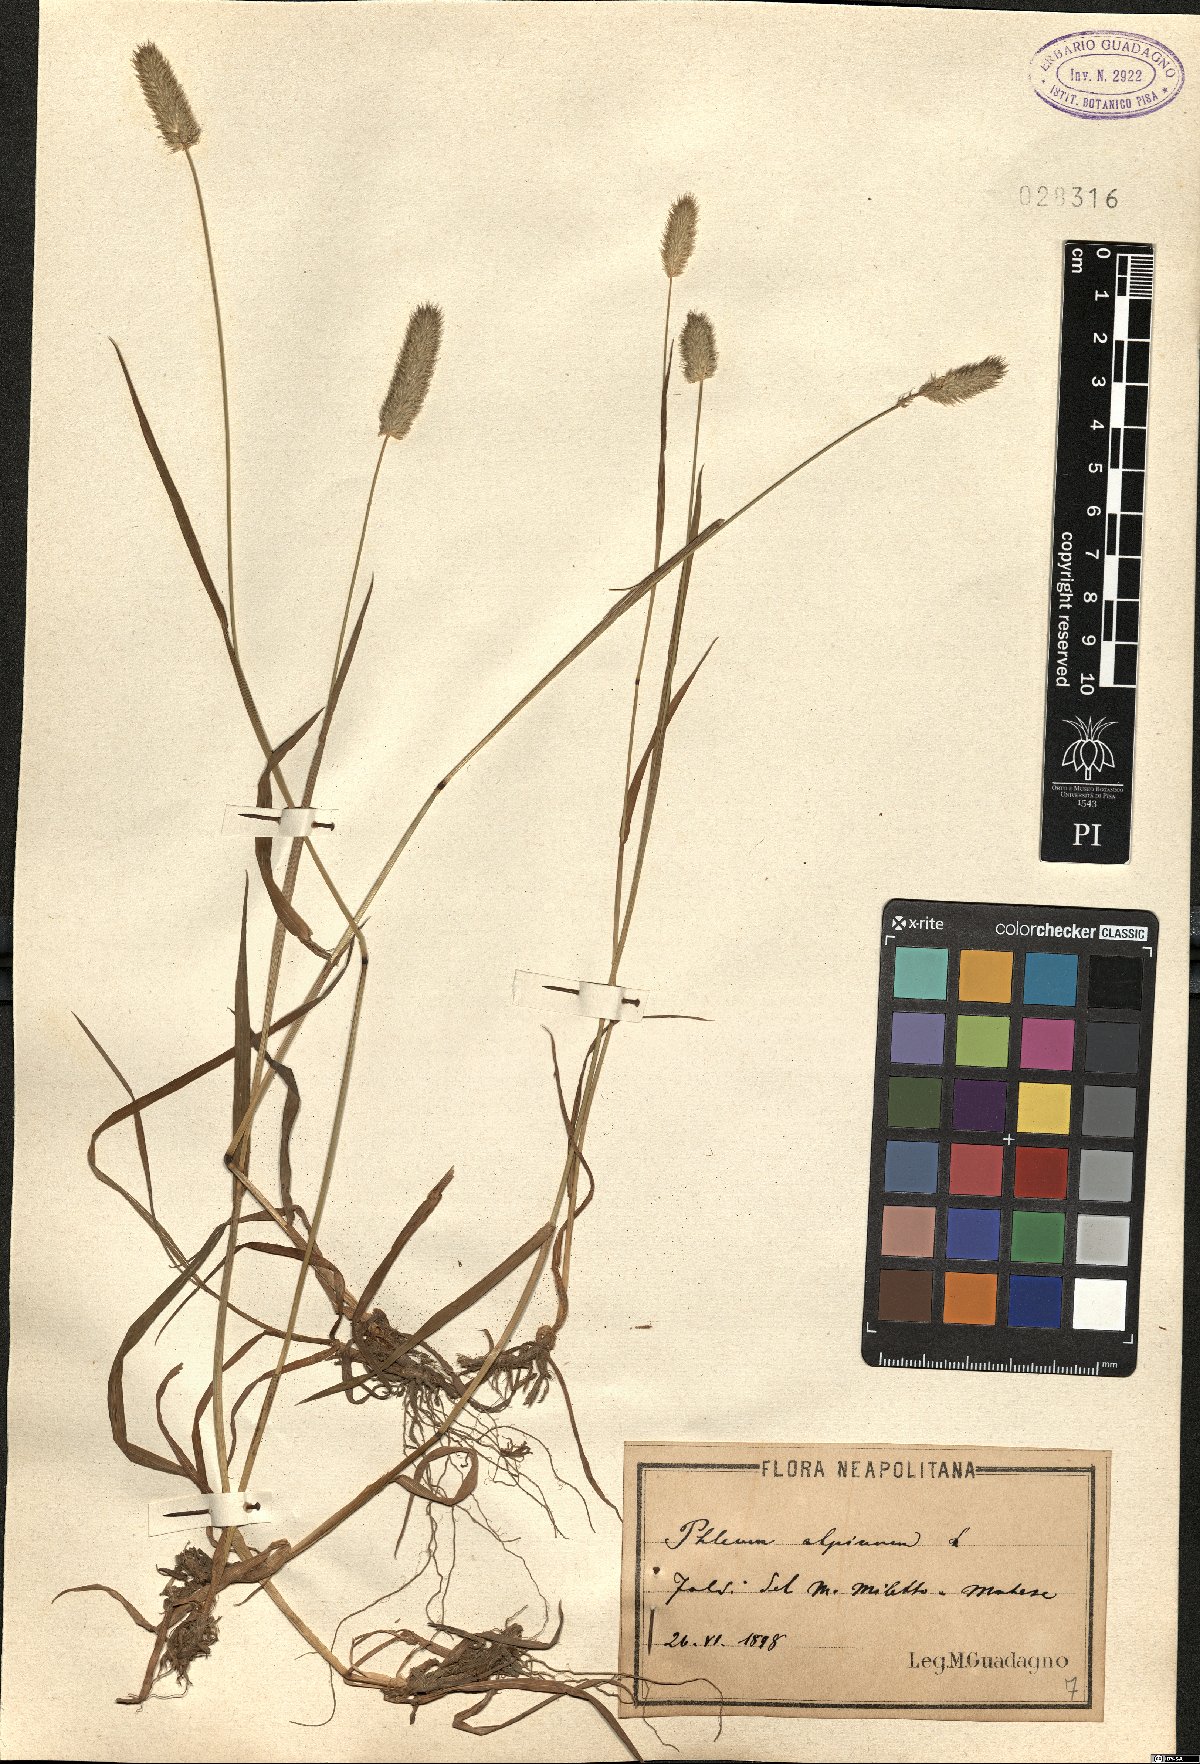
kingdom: Plantae
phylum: Tracheophyta
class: Liliopsida
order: Poales
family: Poaceae
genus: Phleum
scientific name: Phleum alpinum
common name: Alpine cat's-tail
